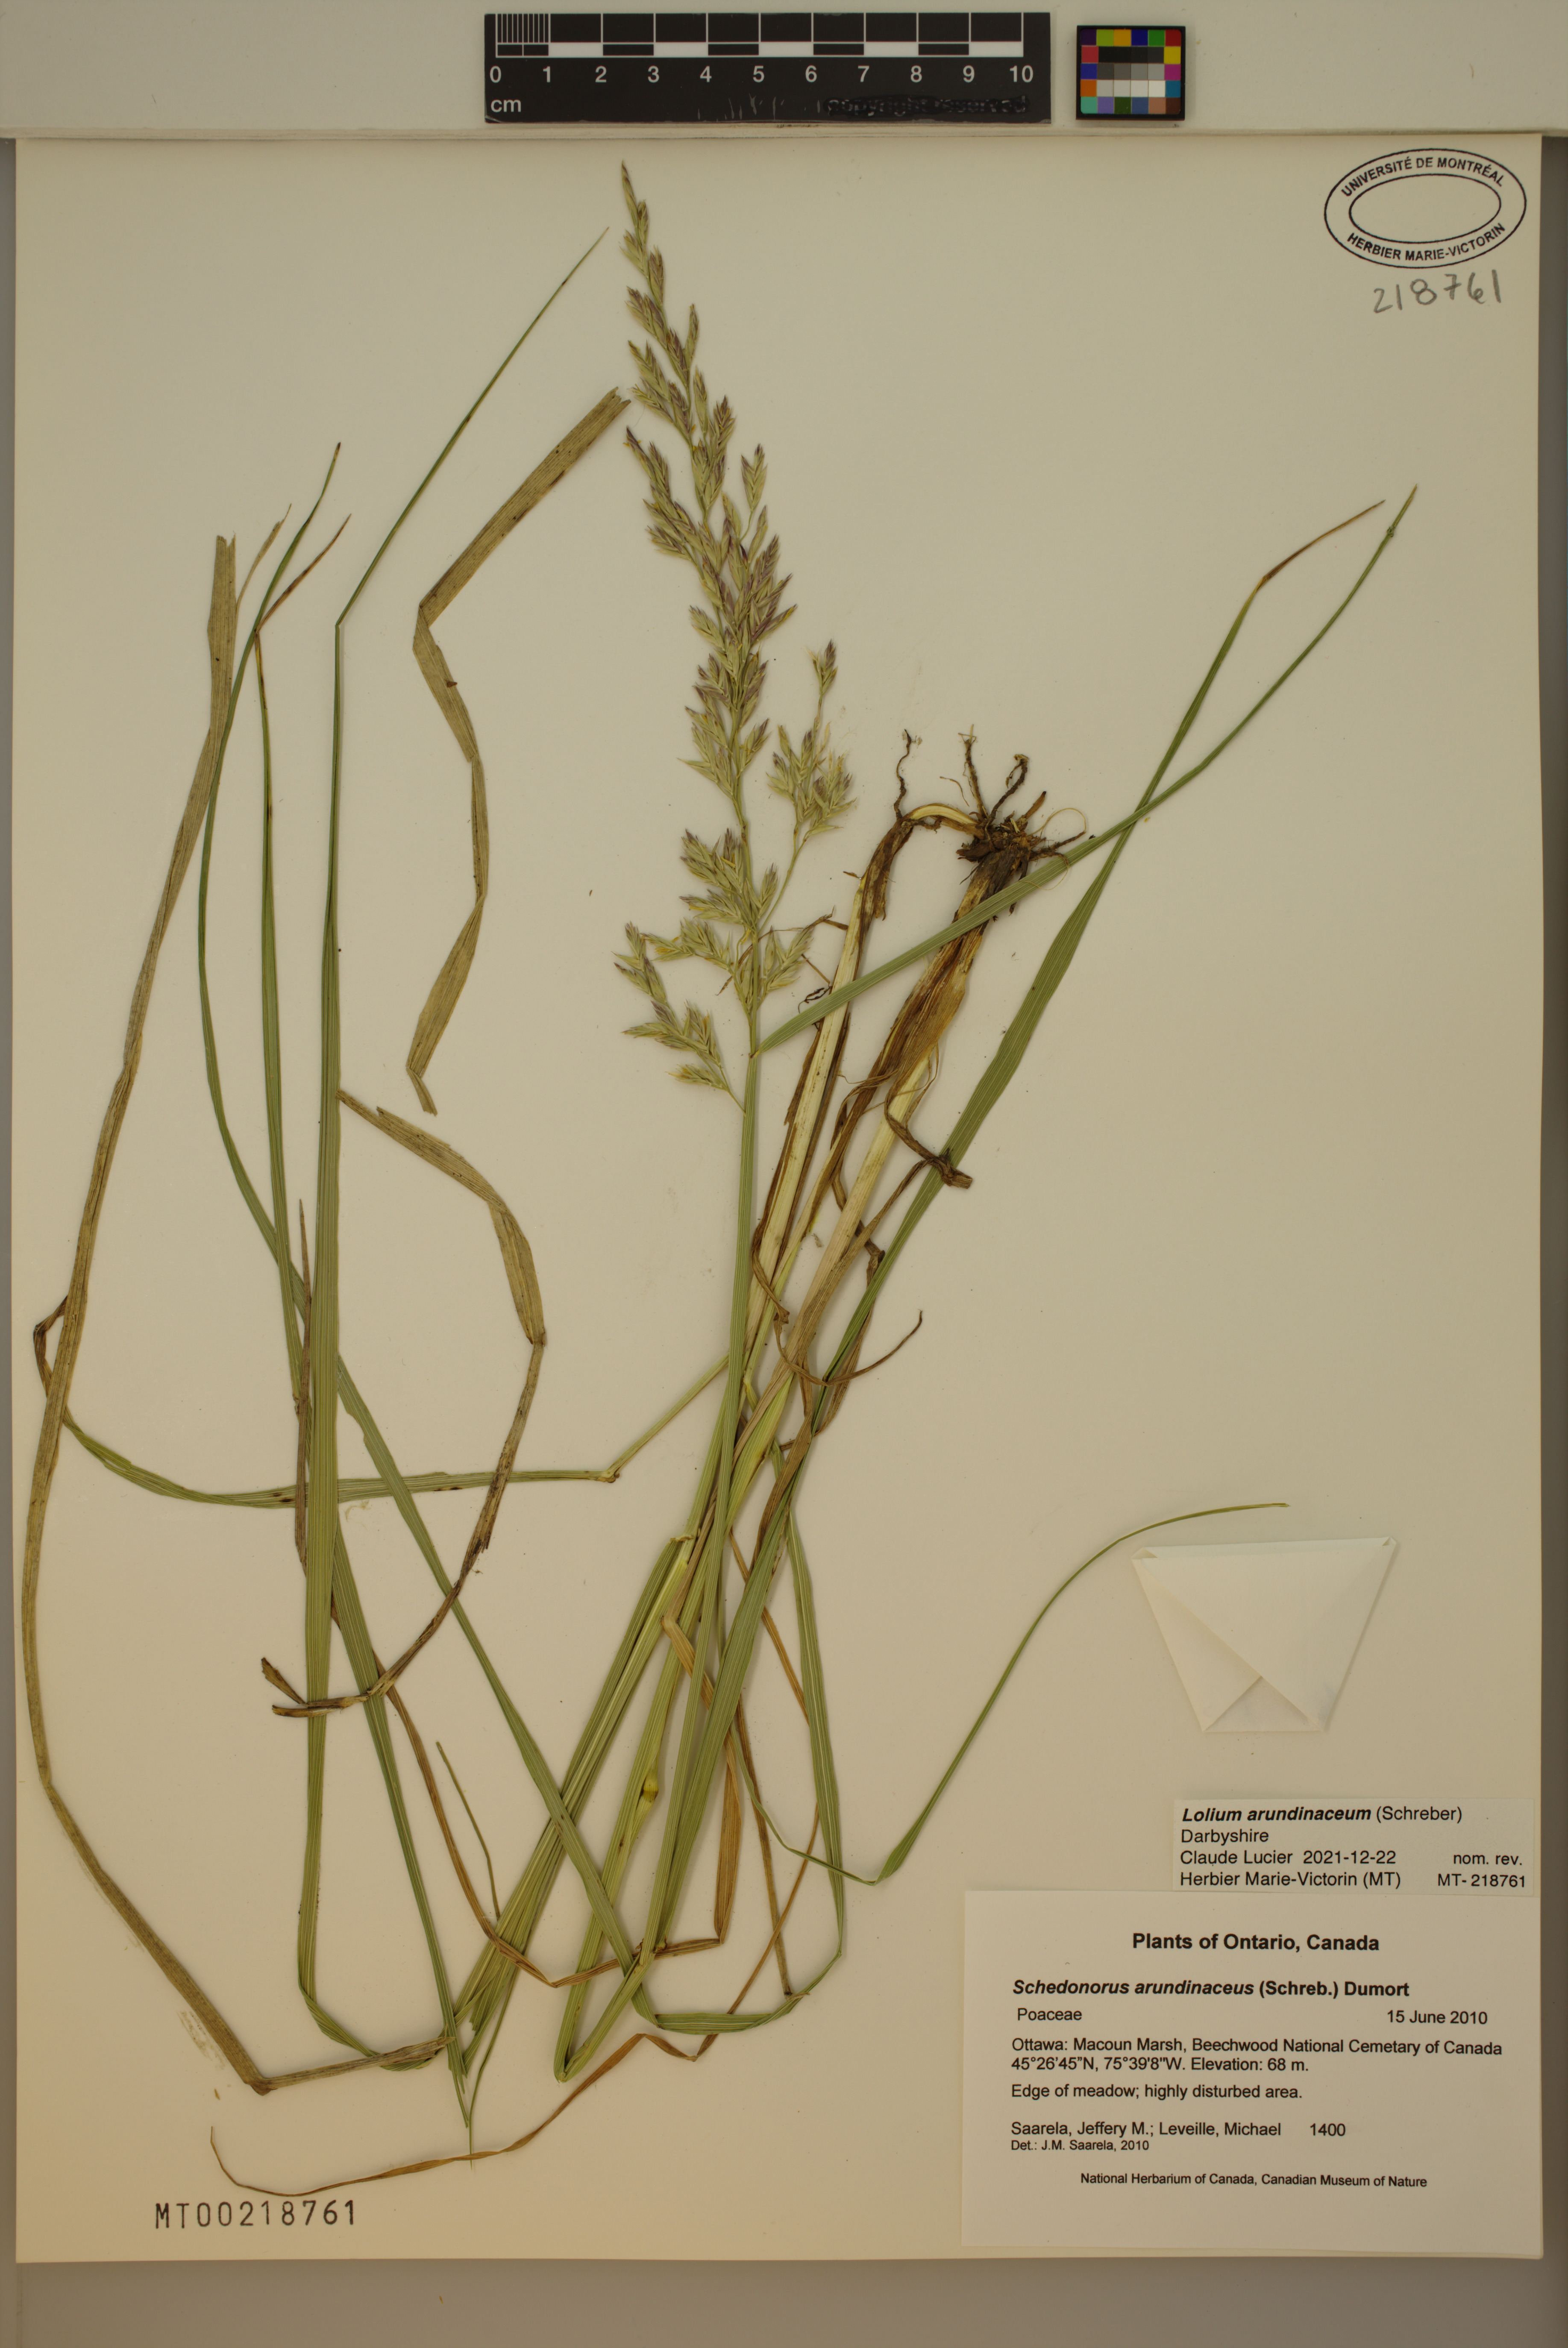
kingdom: Plantae
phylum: Tracheophyta
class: Liliopsida
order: Poales
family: Poaceae
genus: Lolium
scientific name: Lolium arundinaceum
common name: Reed fescue
